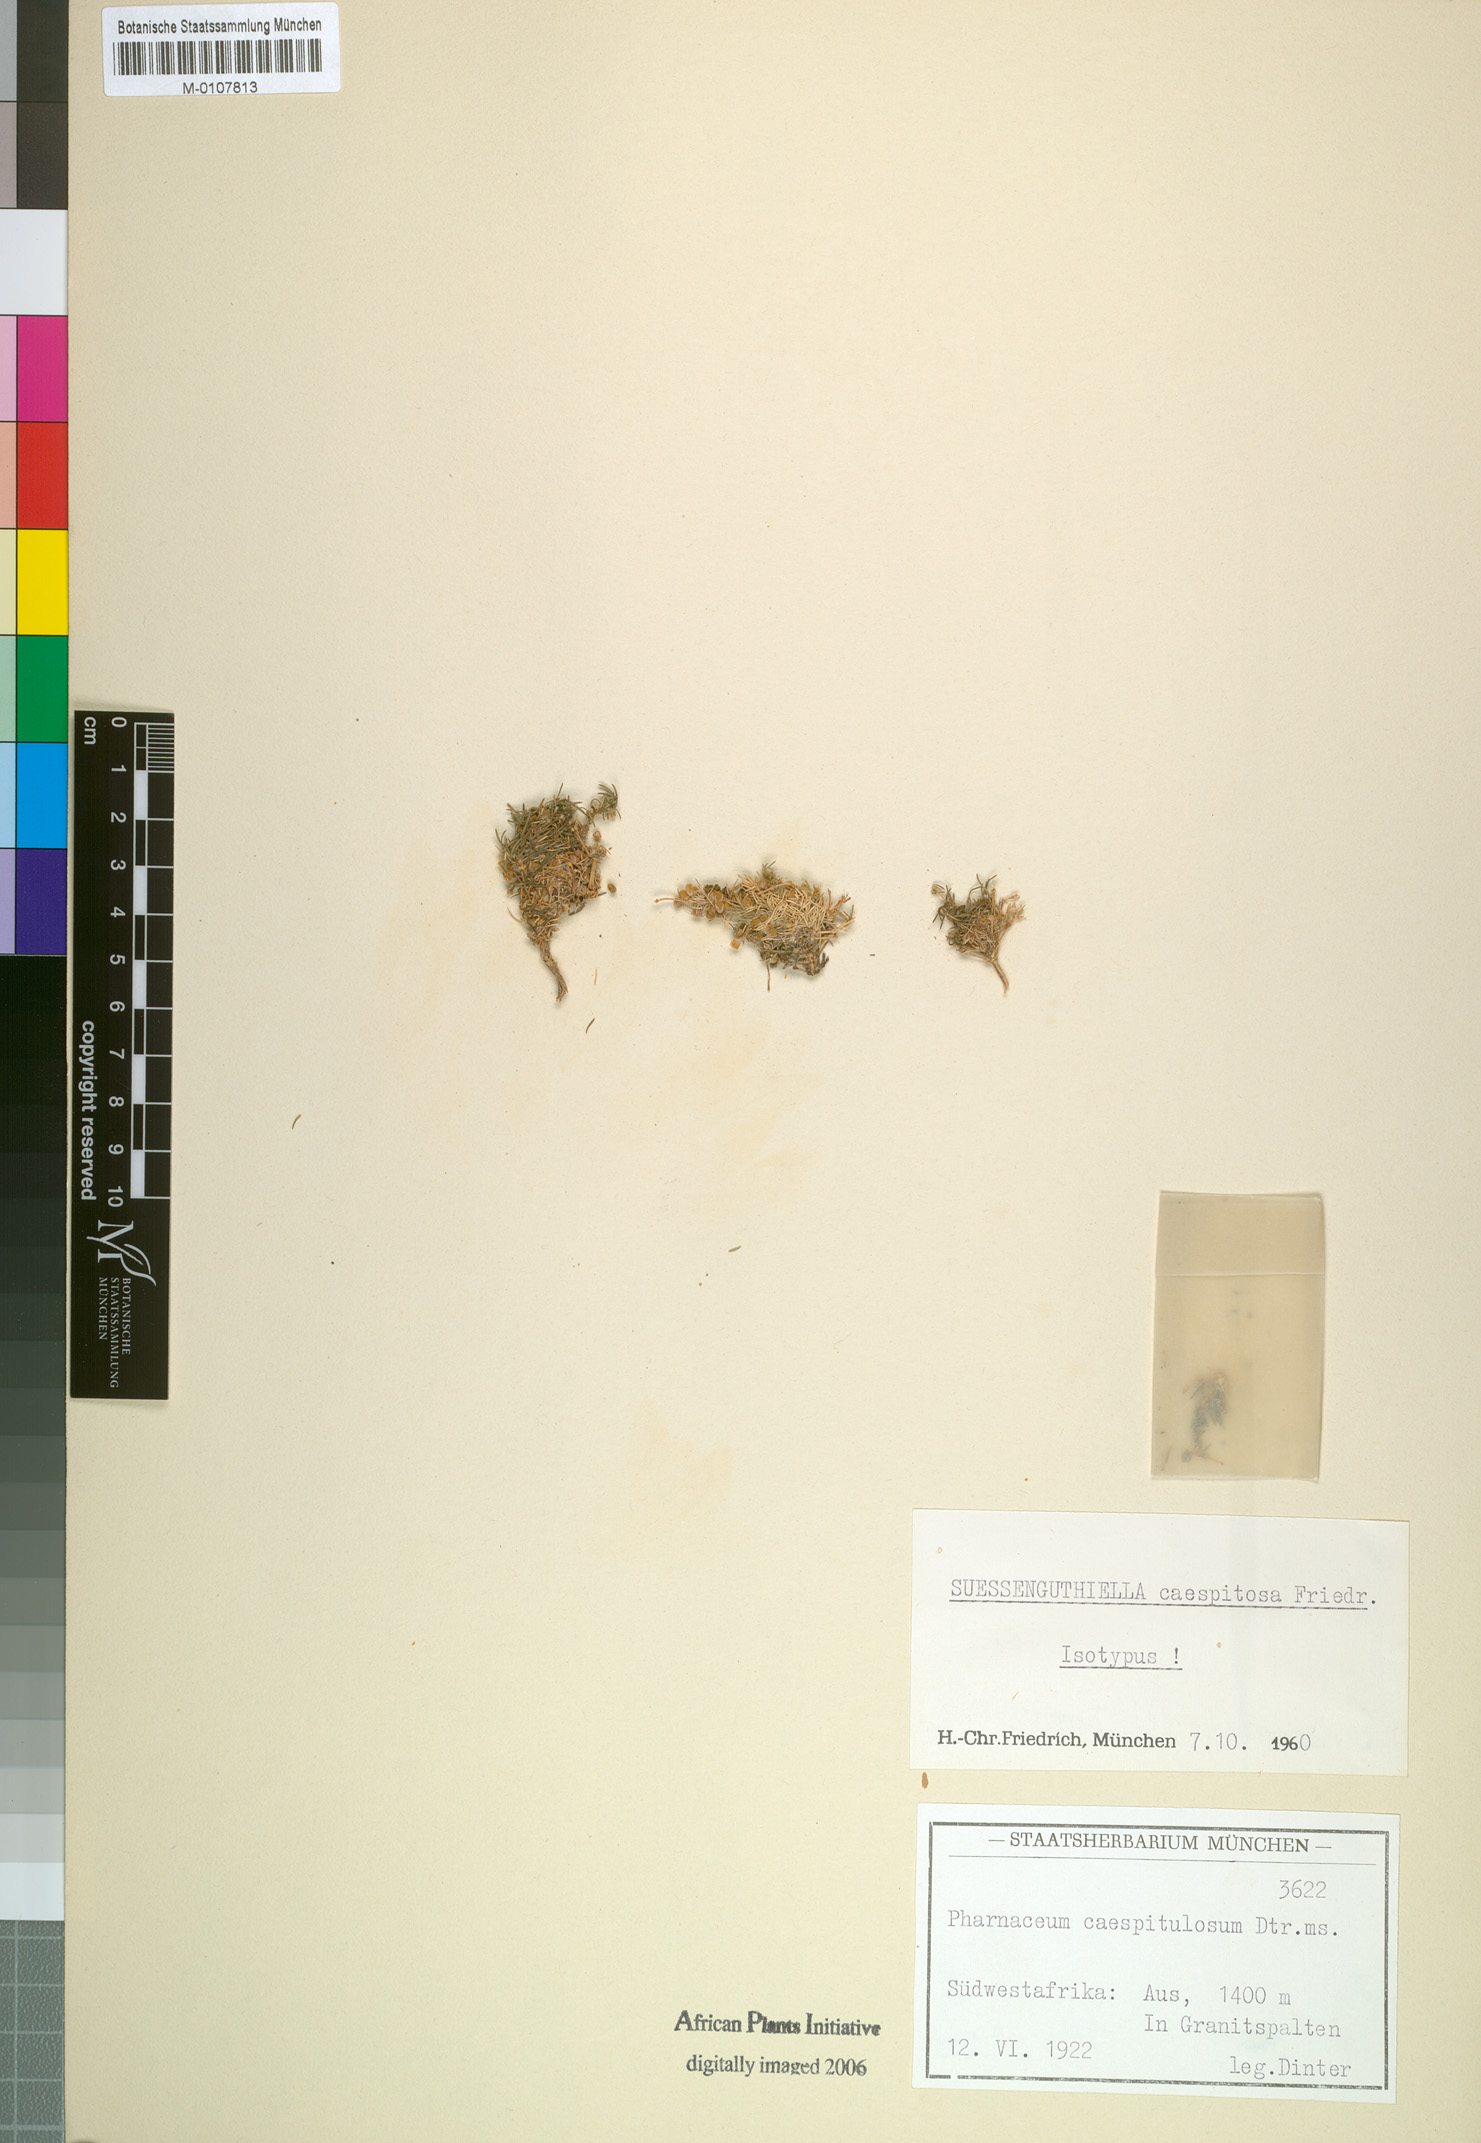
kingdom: Plantae
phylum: Tracheophyta
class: Magnoliopsida
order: Caryophyllales
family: Molluginaceae
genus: Suessenguthiella
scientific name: Suessenguthiella scleranthoides
